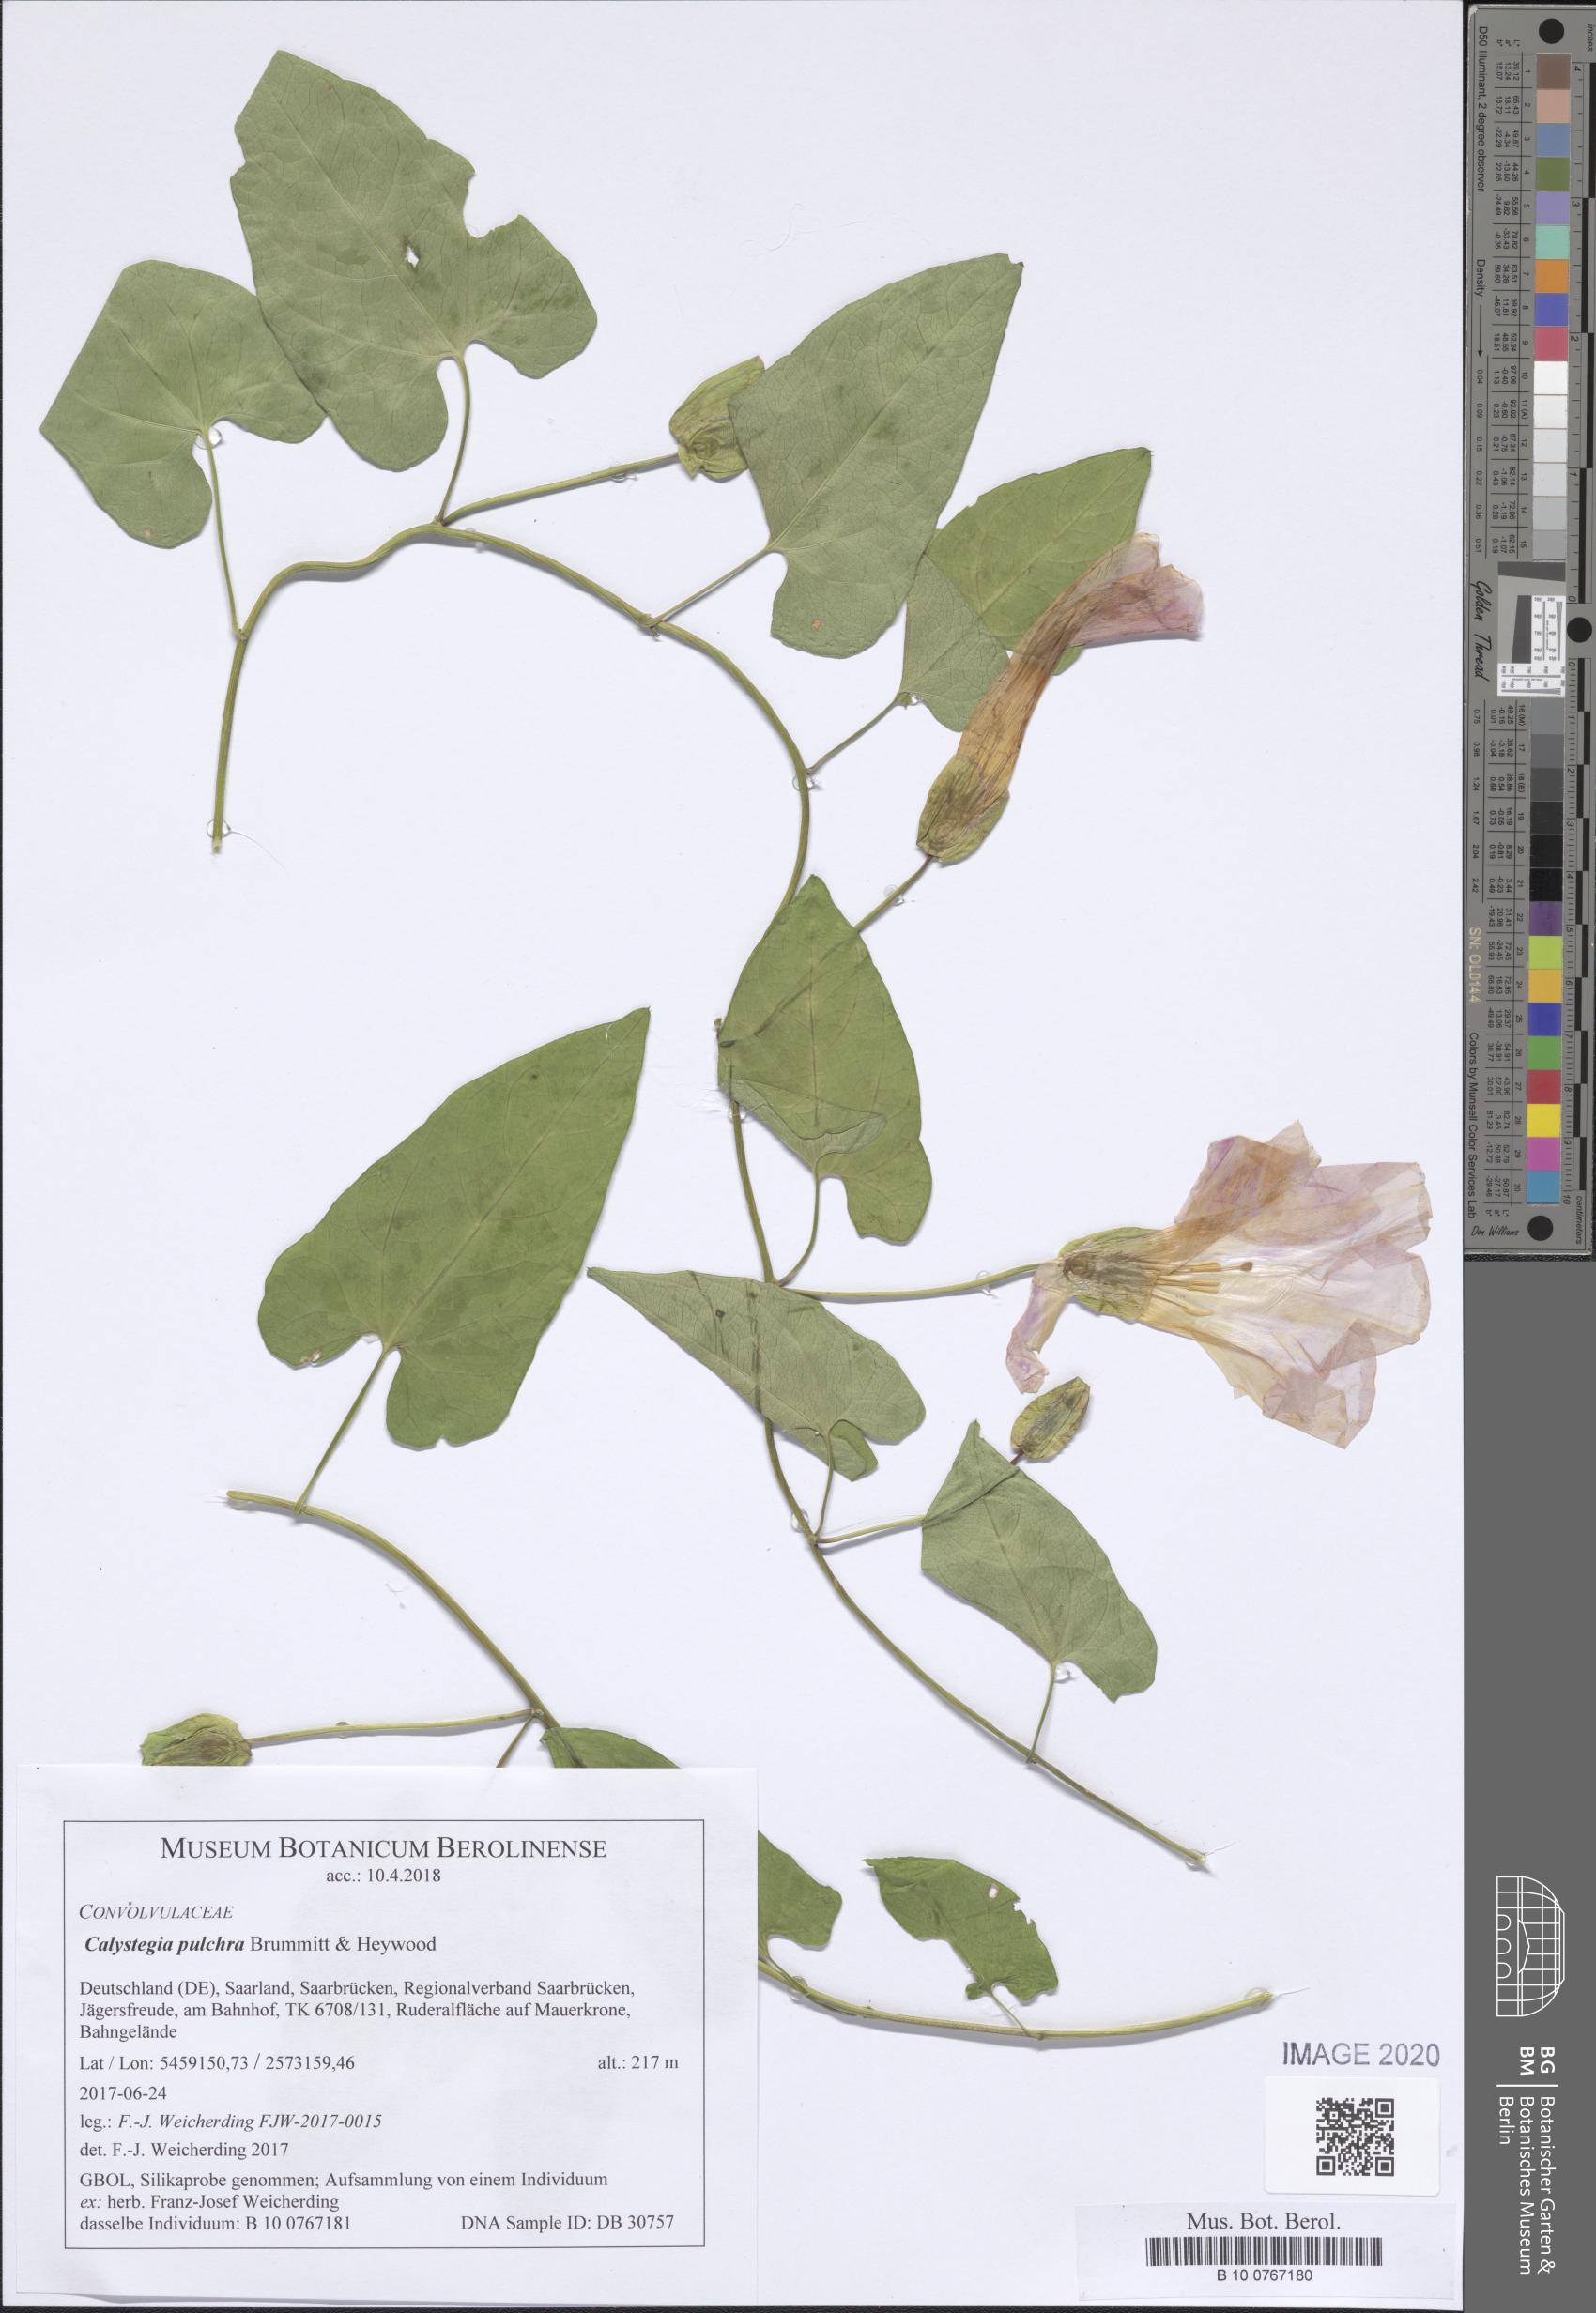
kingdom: Plantae
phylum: Tracheophyta
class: Magnoliopsida
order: Solanales
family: Convolvulaceae
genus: Calystegia
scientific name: Calystegia pulchra
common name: Hairy bindweed
